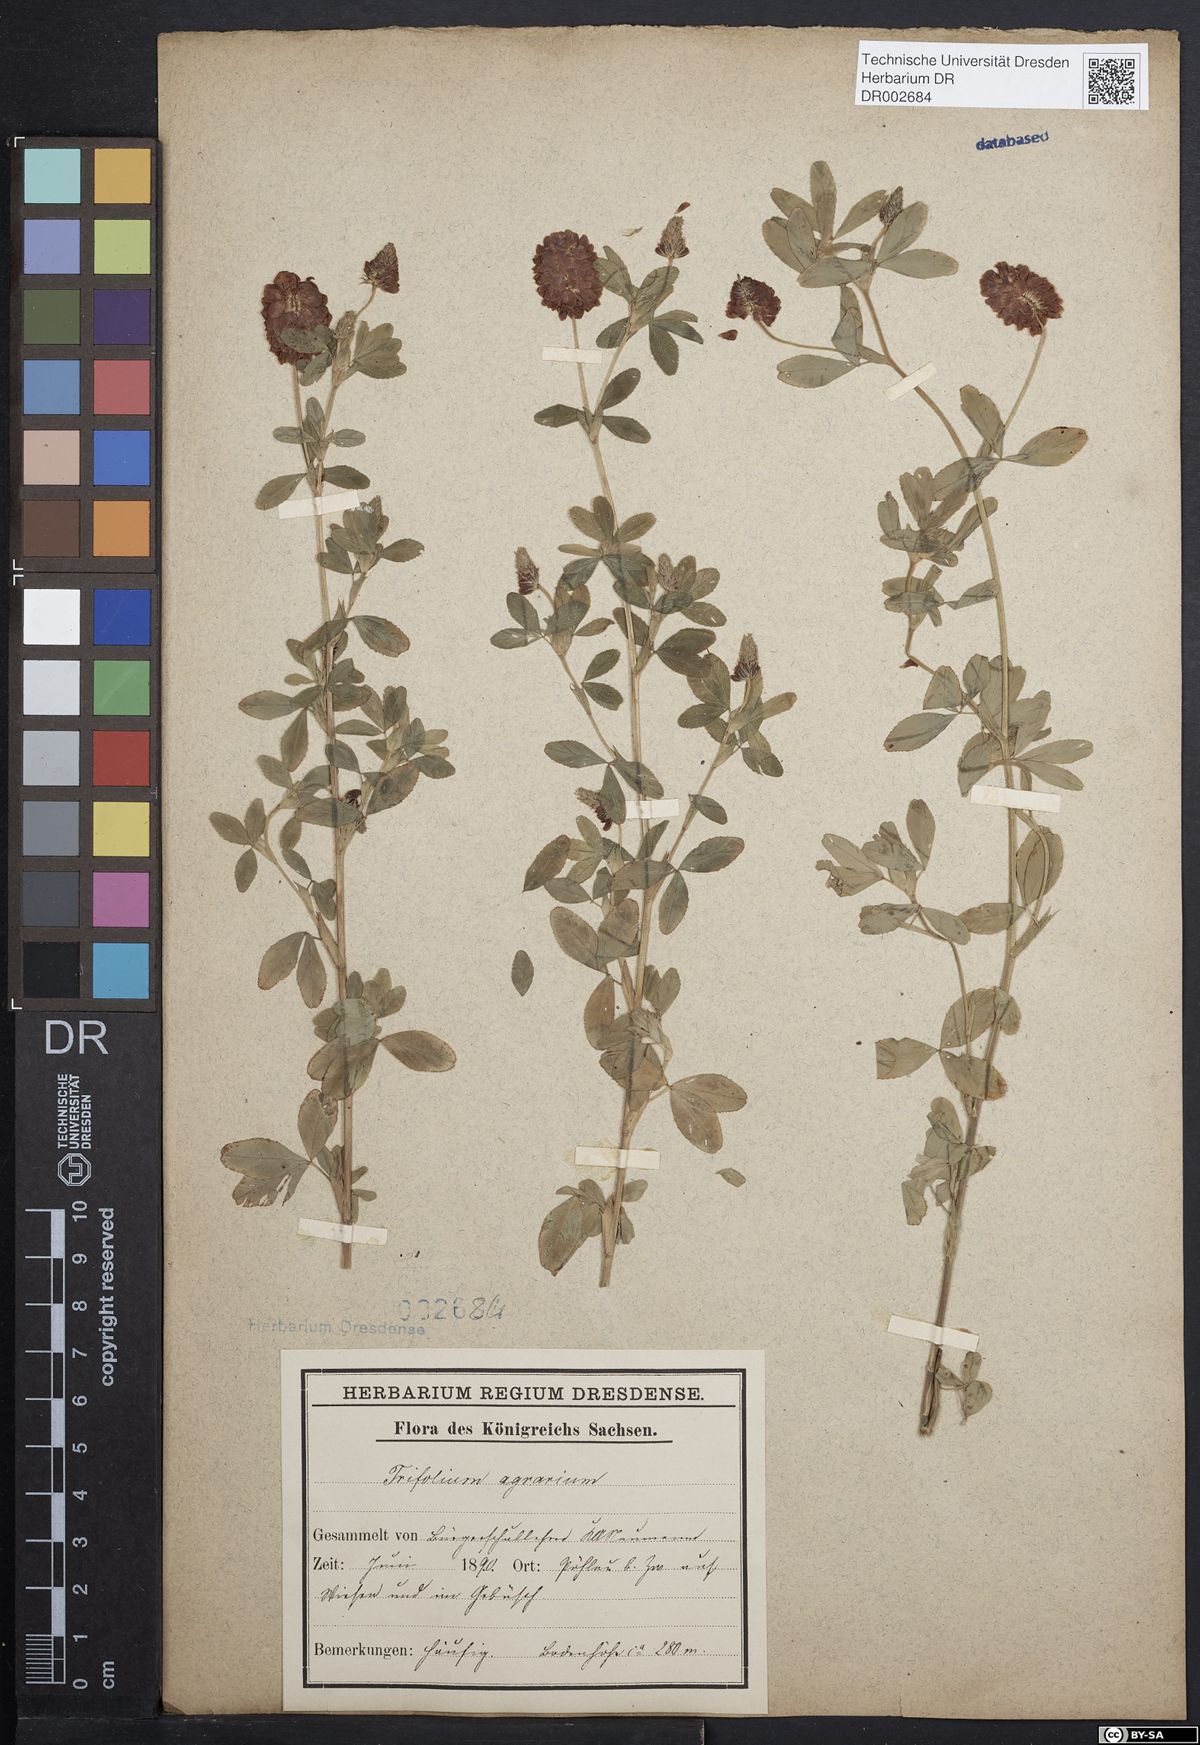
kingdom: Plantae
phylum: Tracheophyta
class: Magnoliopsida
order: Fabales
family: Fabaceae
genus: Trifolium
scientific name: Trifolium aureum
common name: Golden clover
